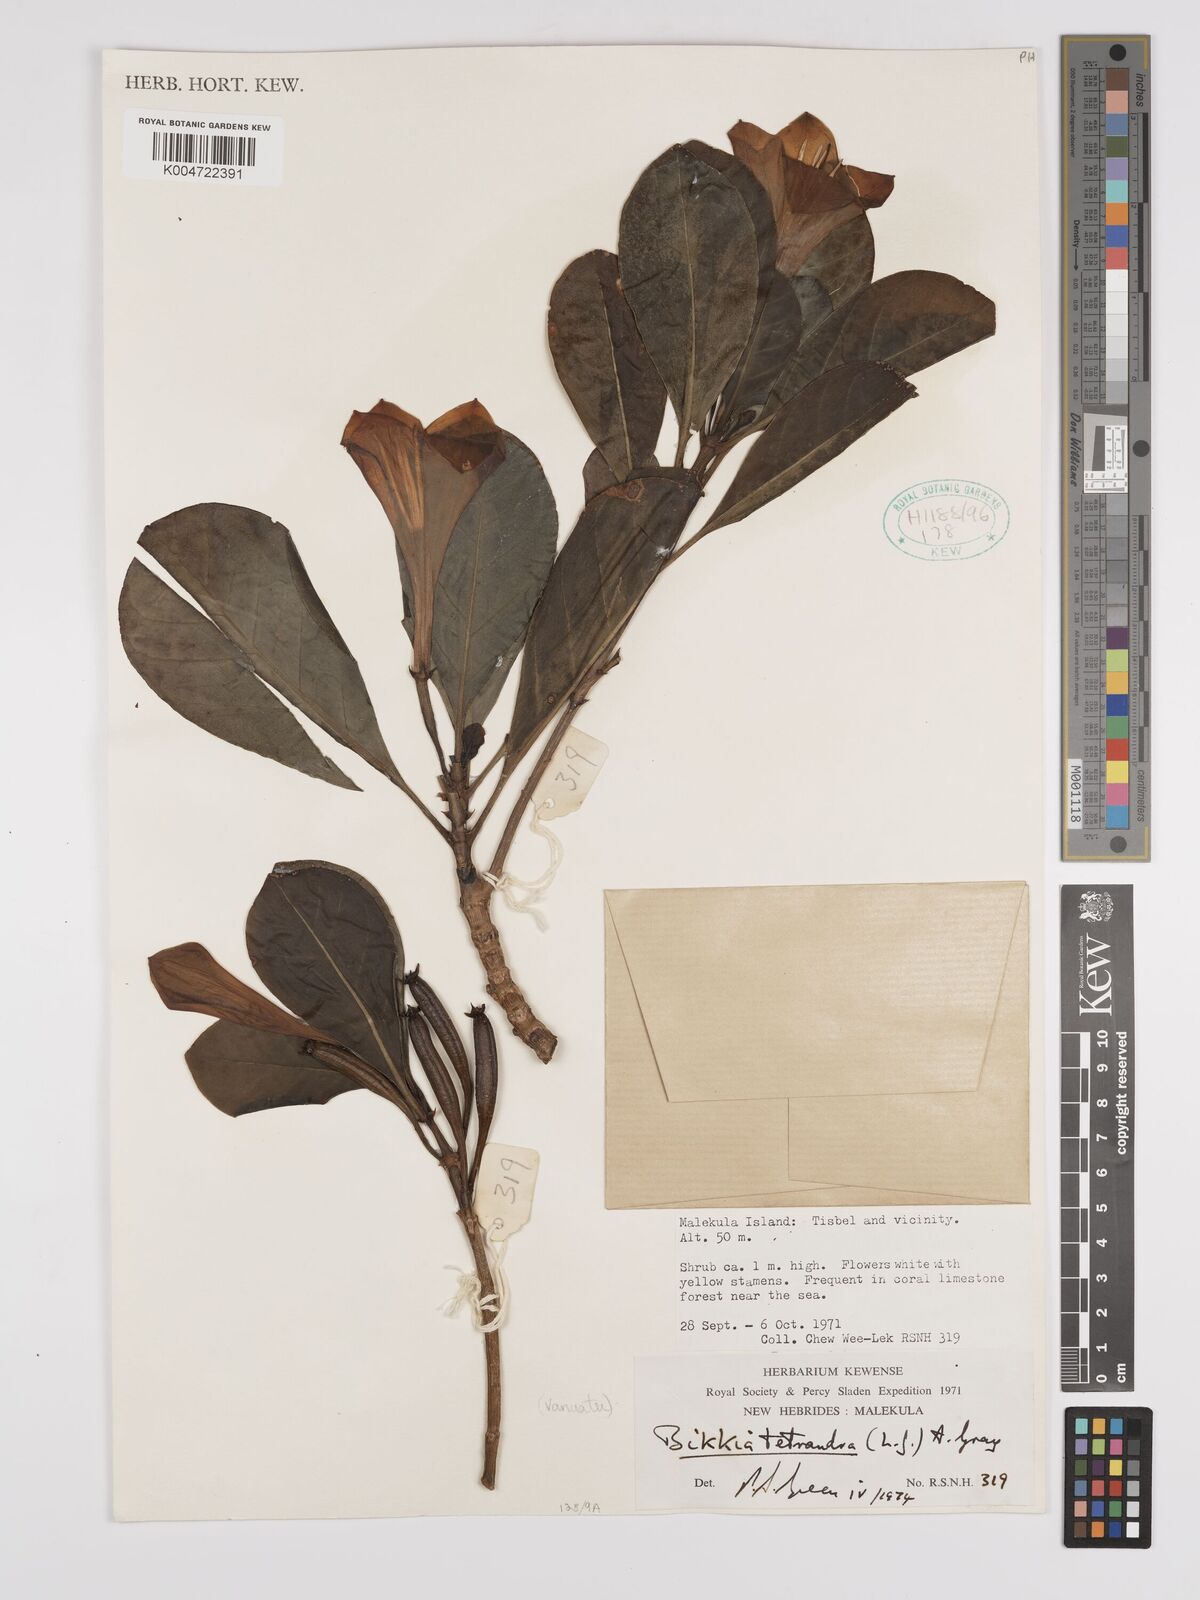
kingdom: Plantae
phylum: Tracheophyta
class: Magnoliopsida
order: Gentianales
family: Rubiaceae
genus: Bikkia
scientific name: Bikkia
